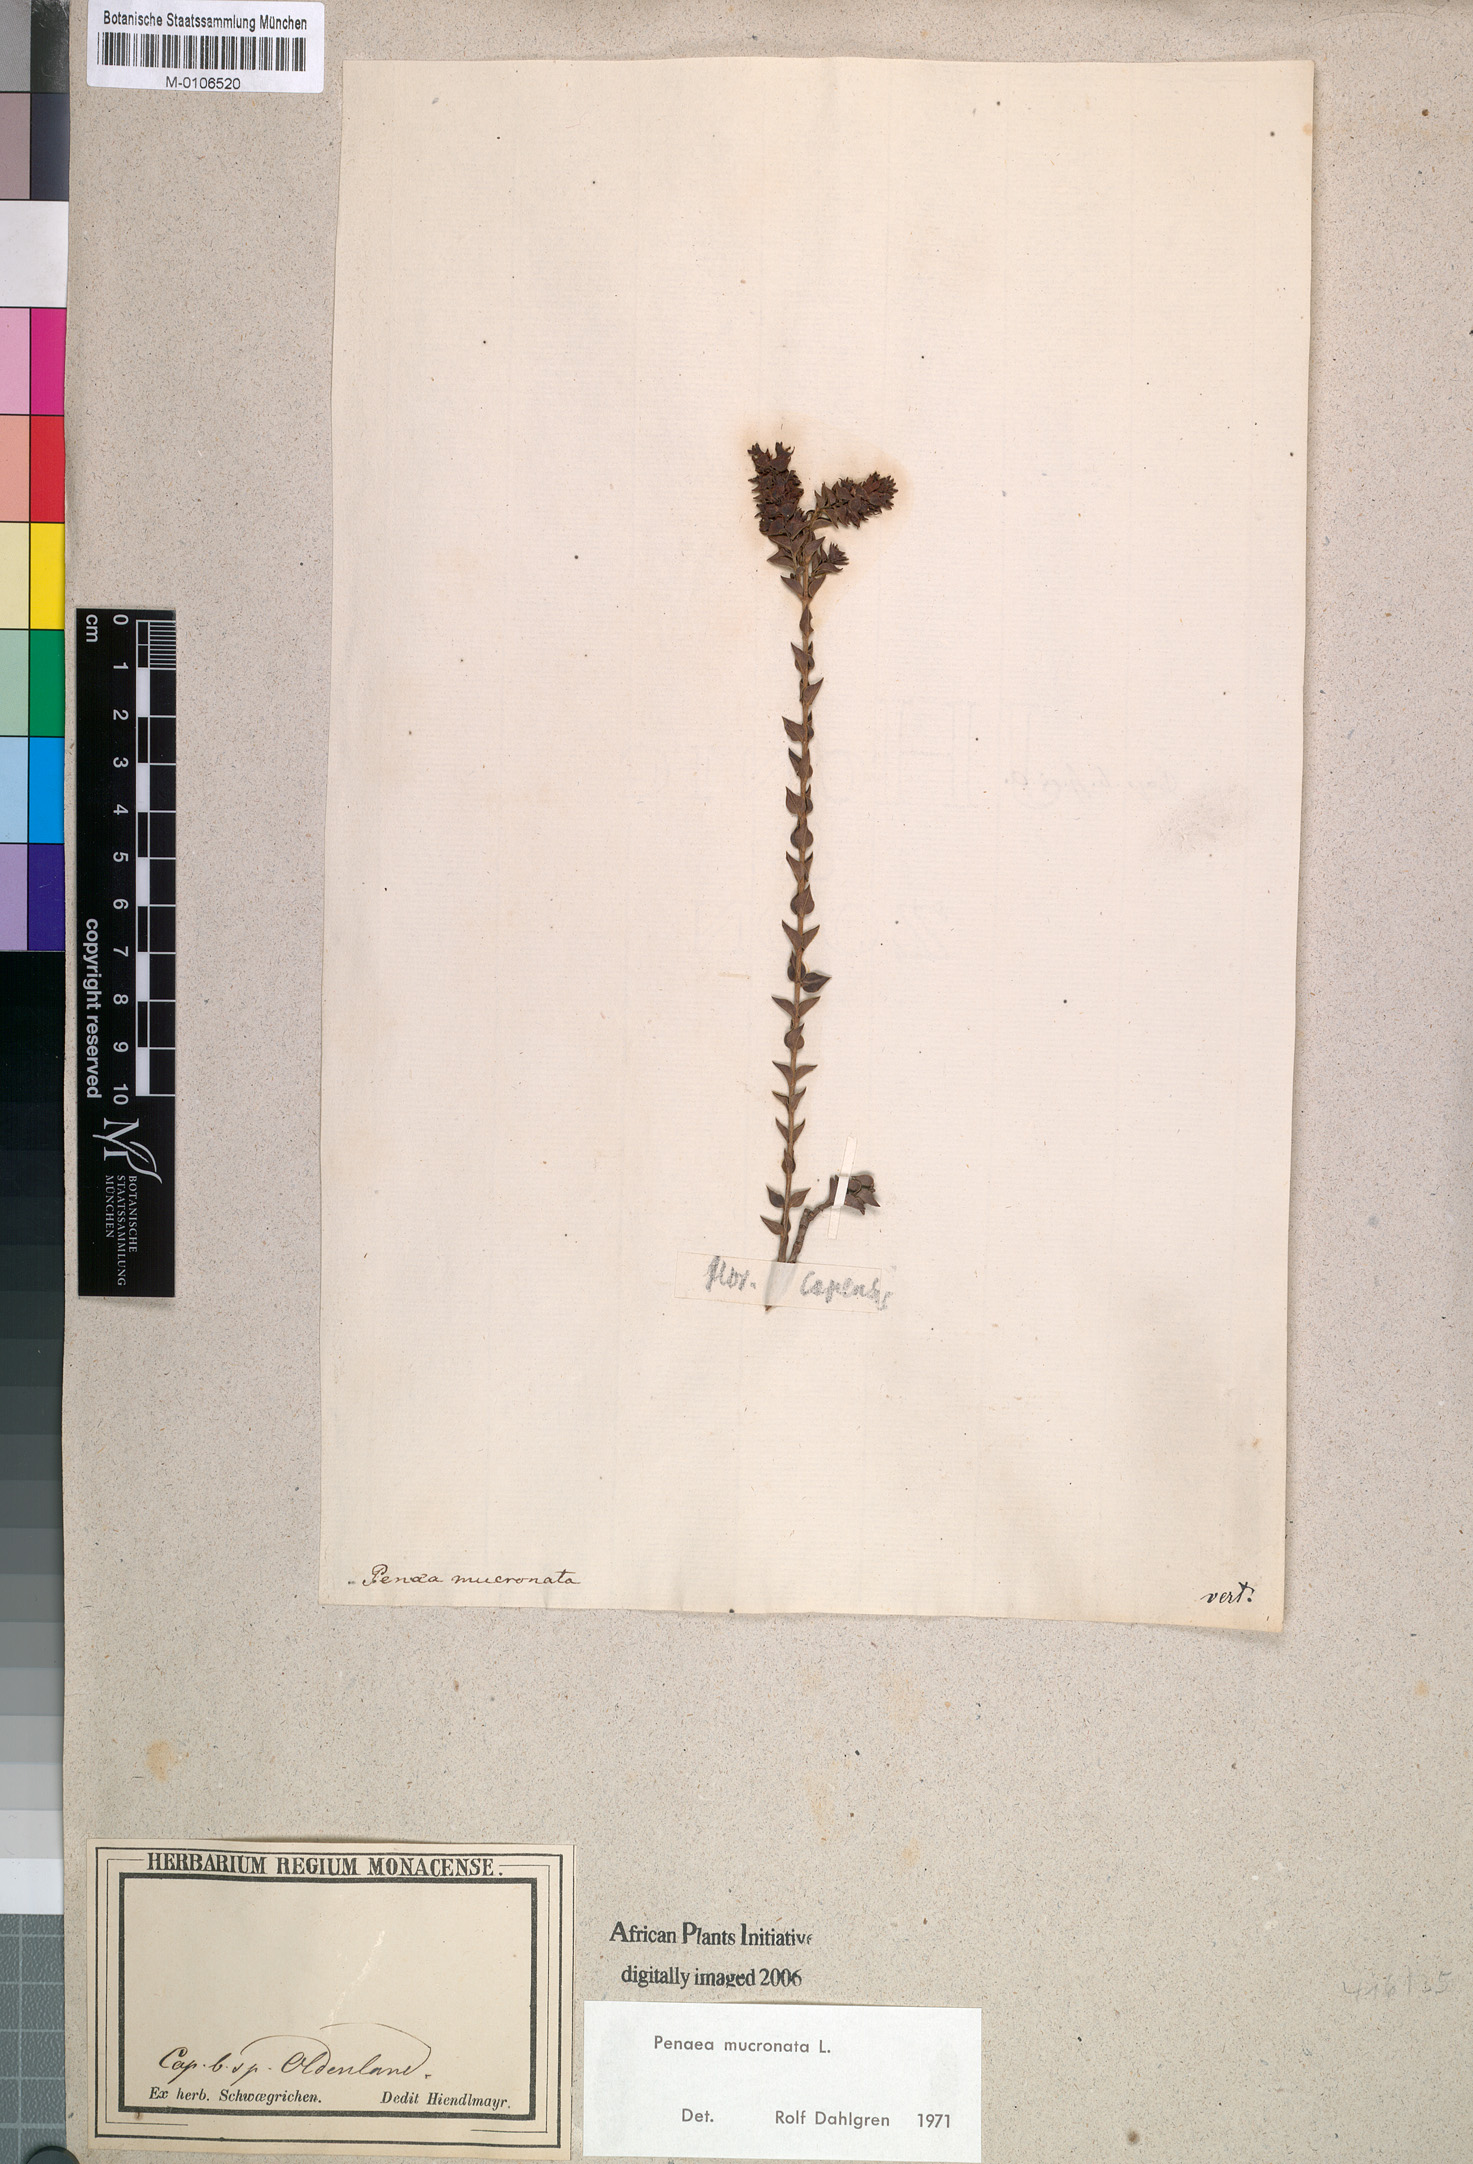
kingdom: Plantae
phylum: Tracheophyta
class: Magnoliopsida
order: Myrtales
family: Penaeaceae
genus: Penaea
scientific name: Penaea mucronata
